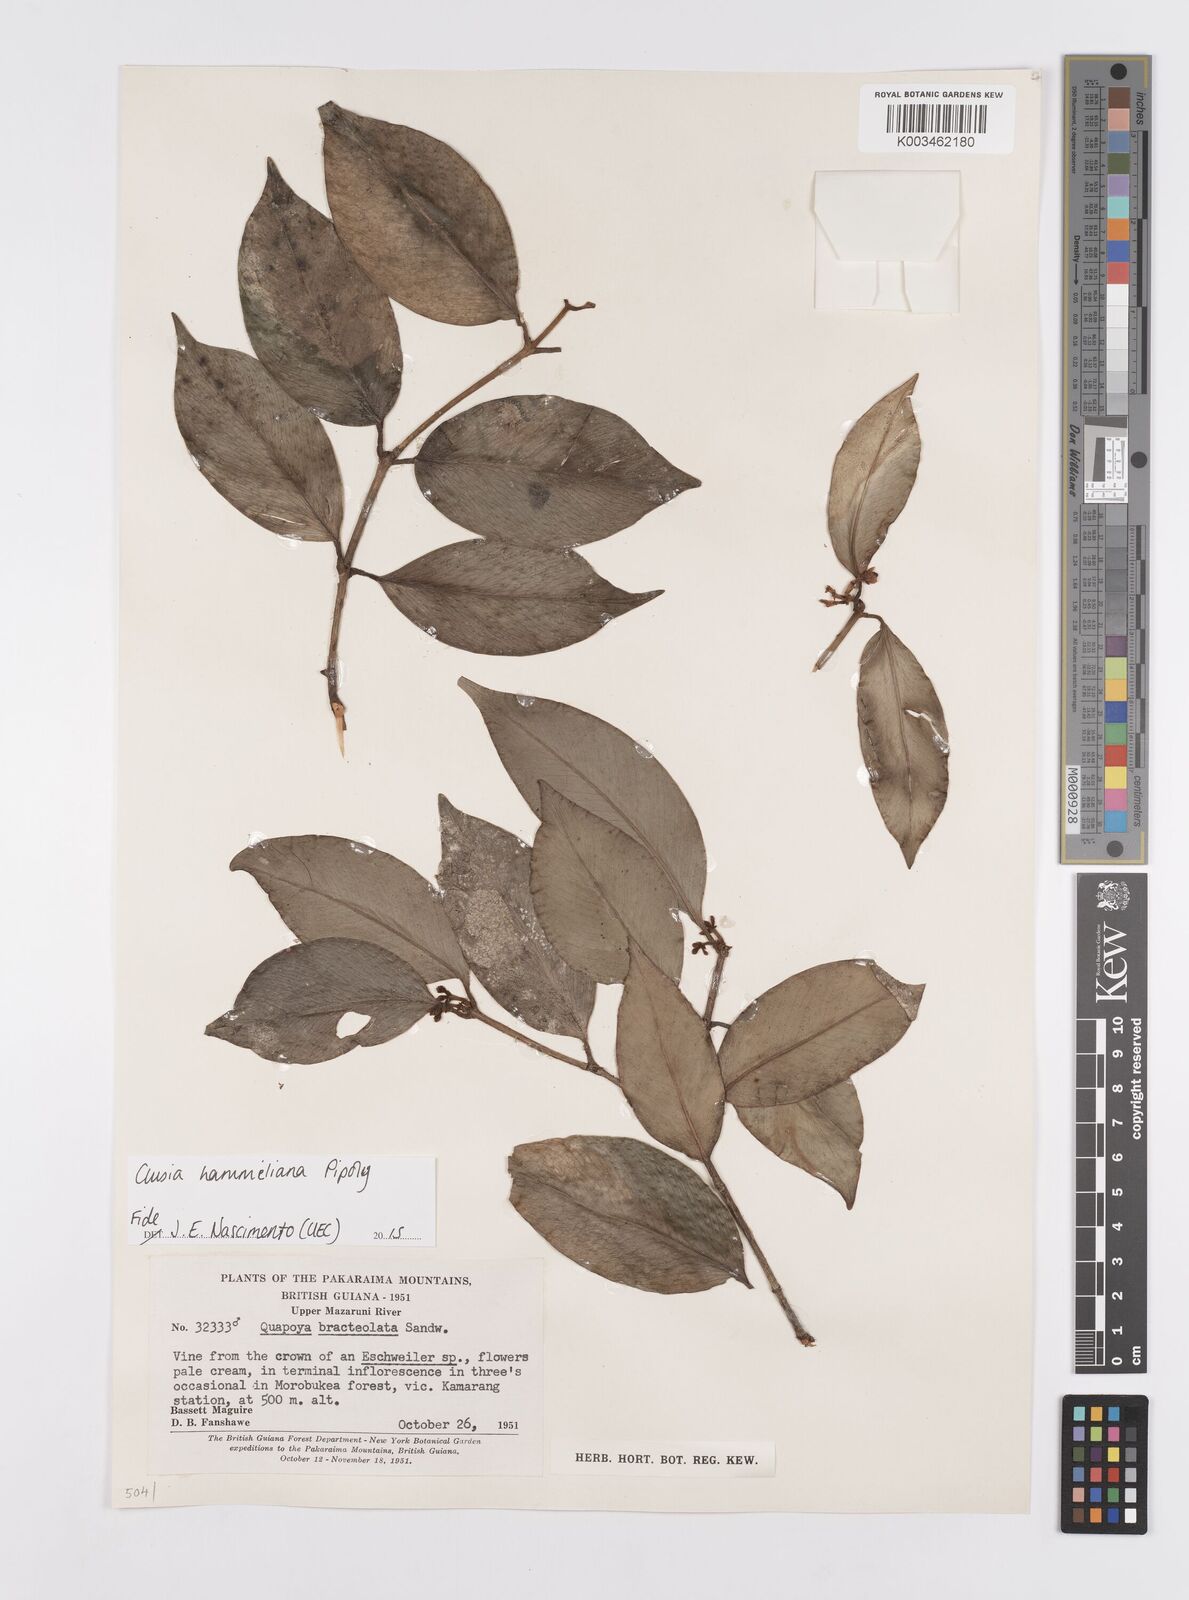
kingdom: Plantae
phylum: Tracheophyta
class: Magnoliopsida
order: Malpighiales
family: Clusiaceae
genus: Clusia
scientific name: Clusia hammeliana
